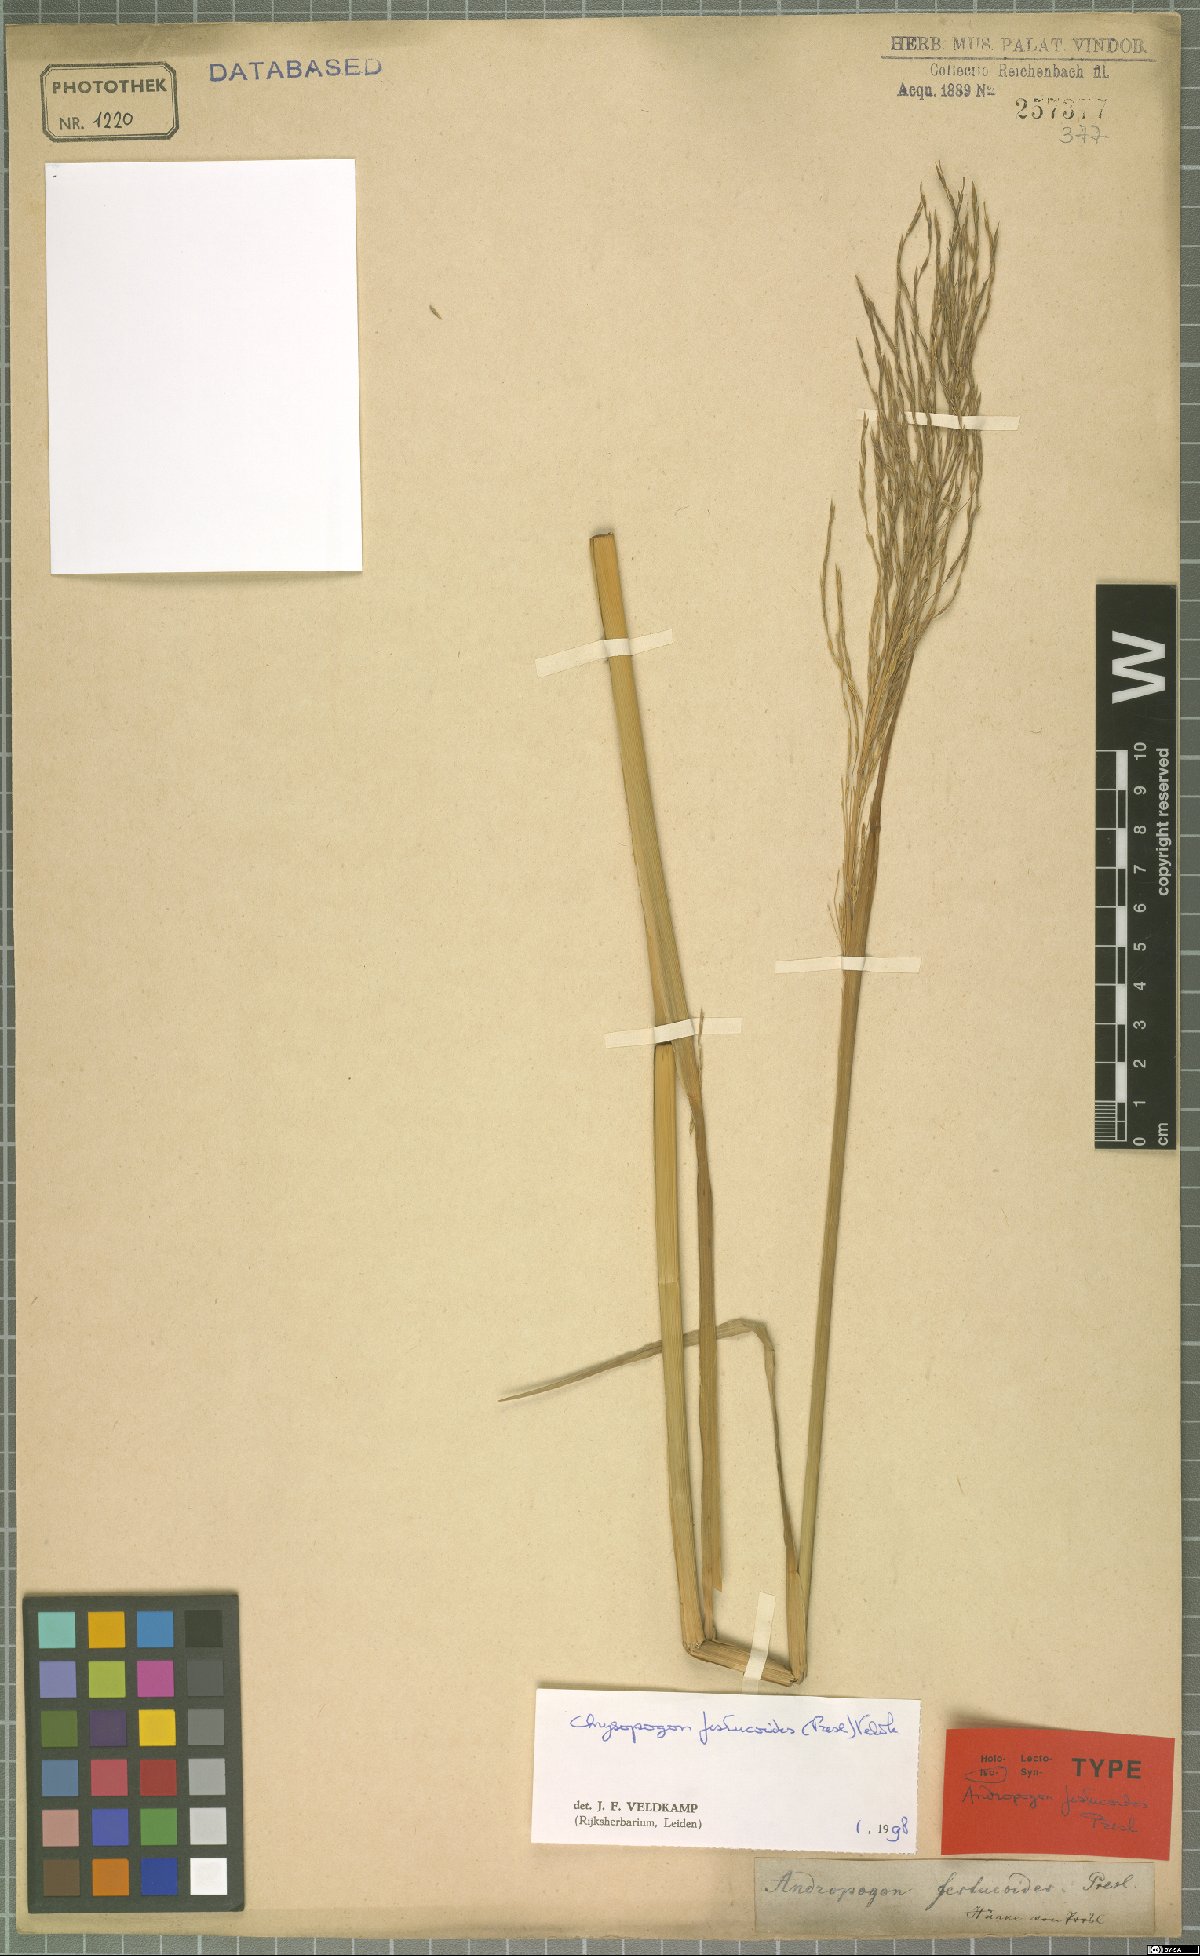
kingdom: Plantae
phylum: Tracheophyta
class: Liliopsida
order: Poales
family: Poaceae
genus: Chrysopogon
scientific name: Chrysopogon festucoides
